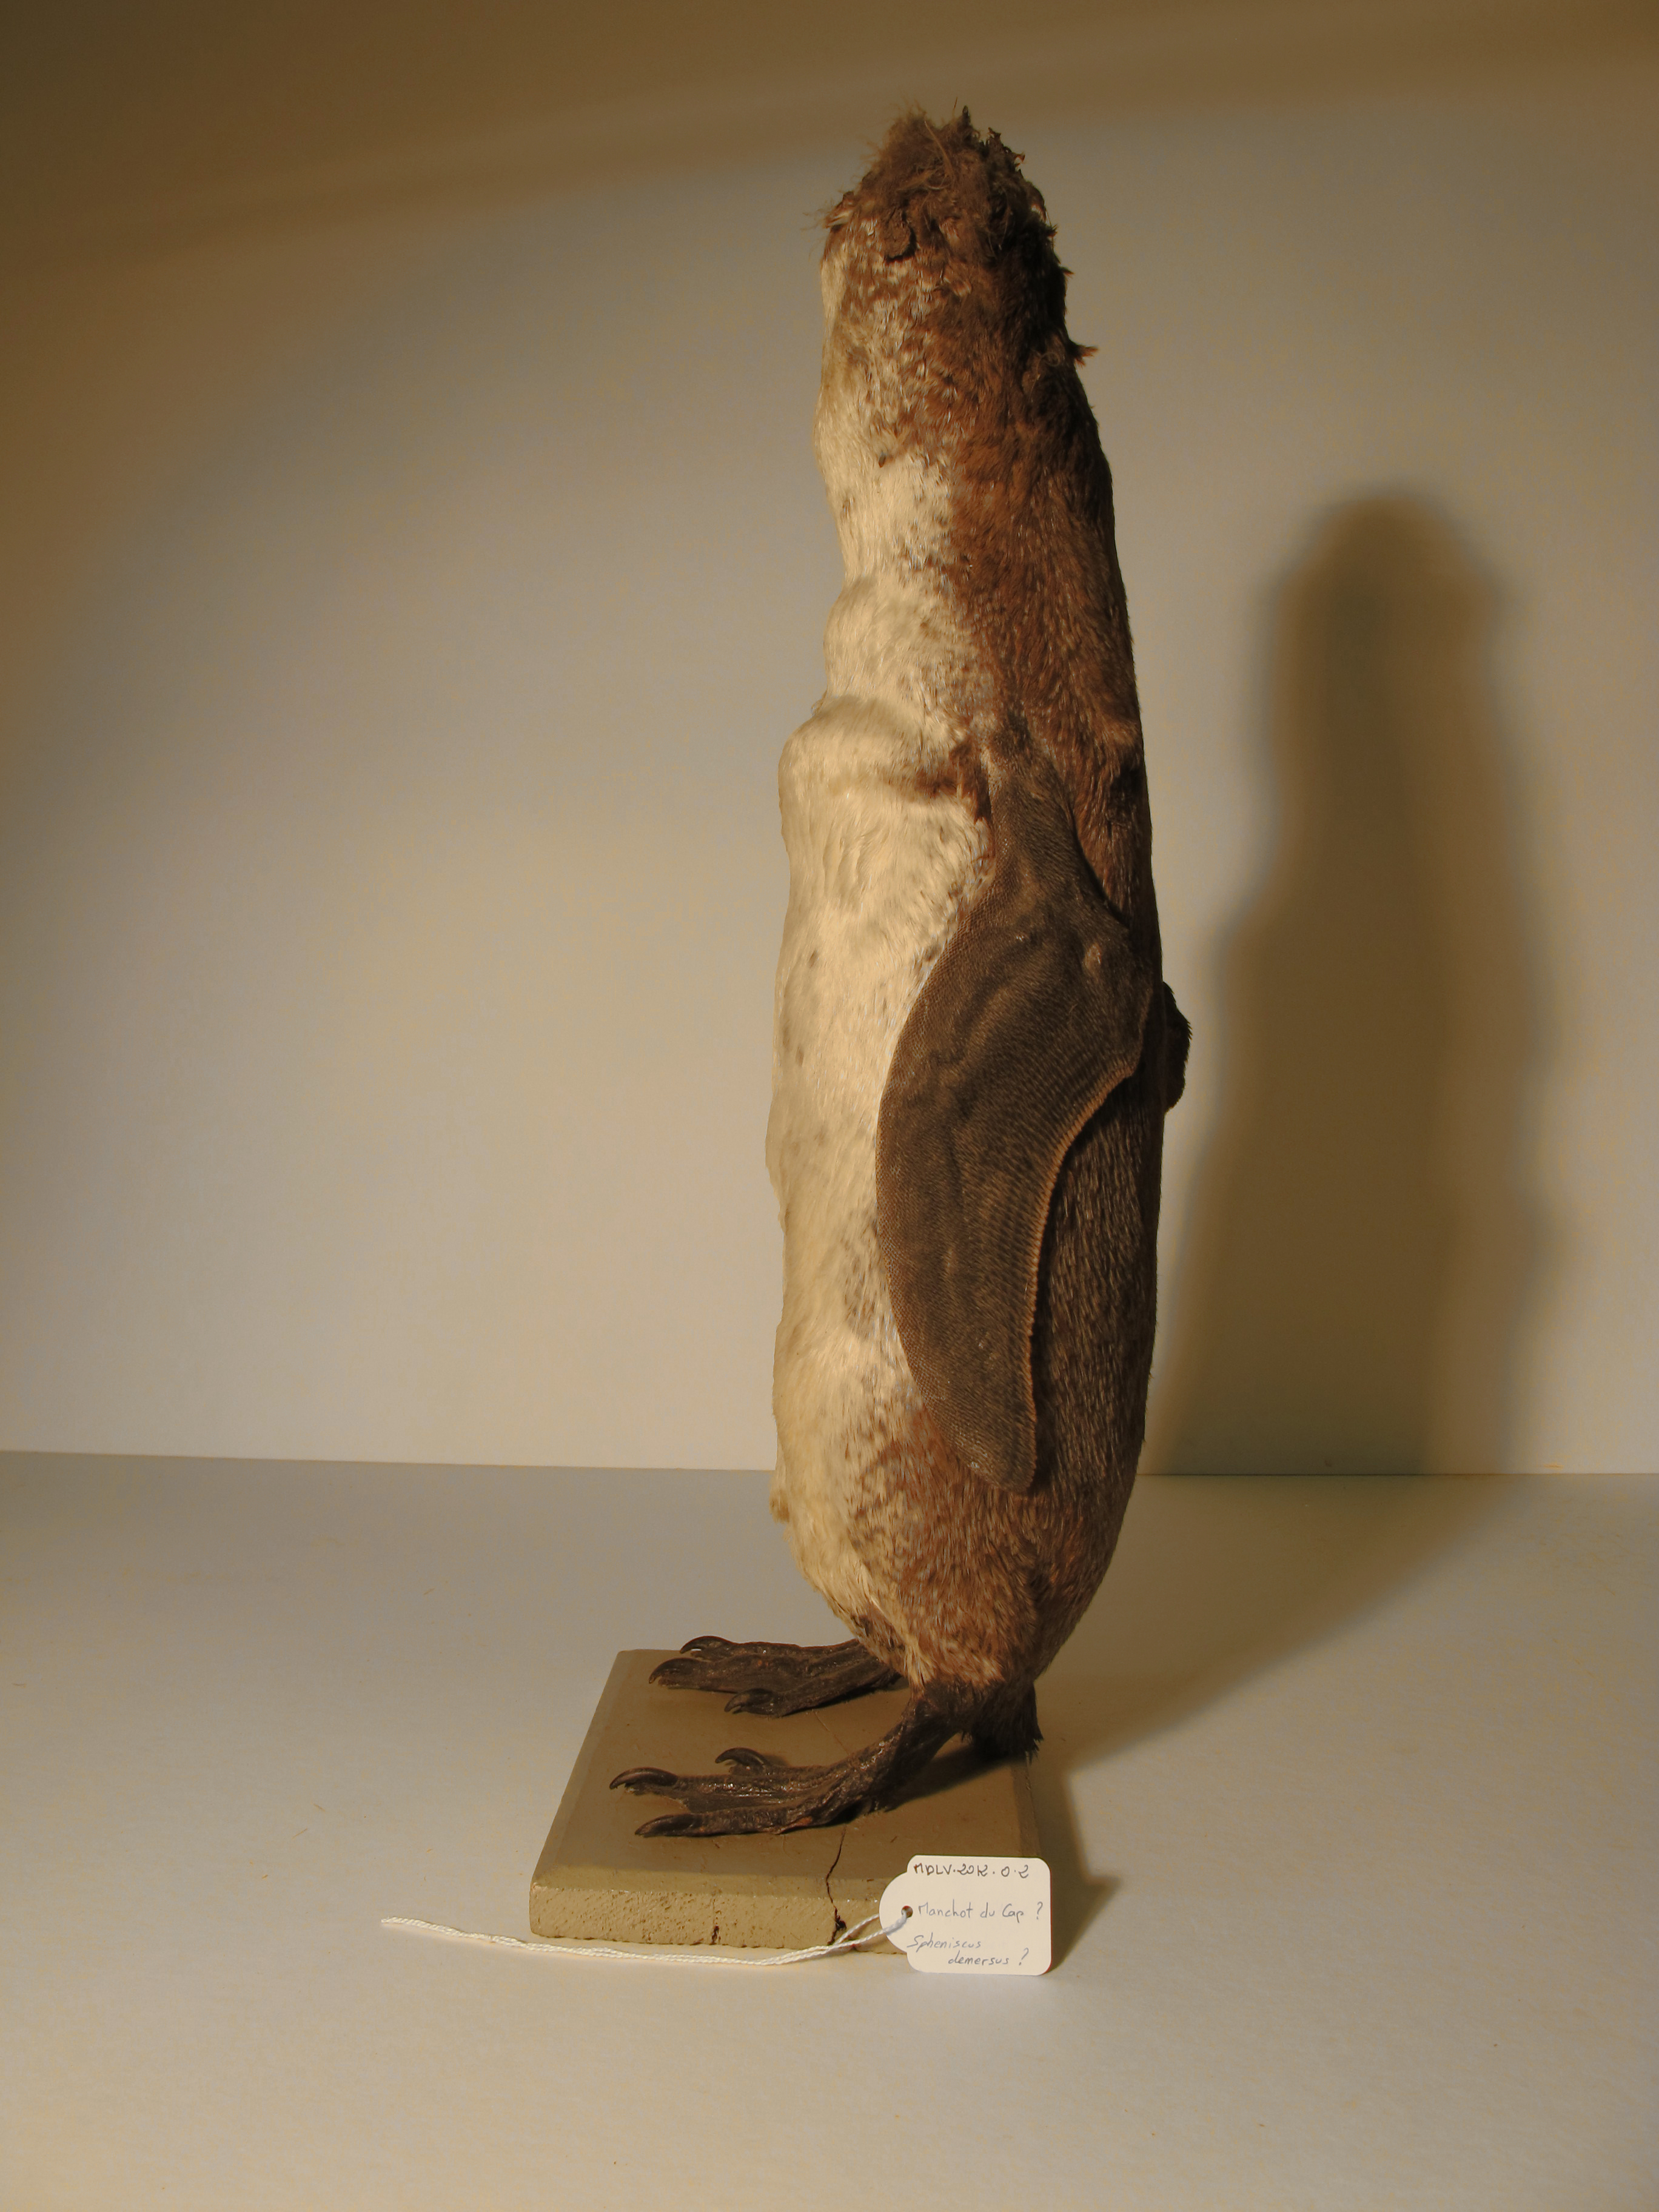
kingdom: Animalia
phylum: Chordata
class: Aves
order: Sphenisciformes
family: Spheniscidae
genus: Spheniscus
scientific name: Spheniscus
